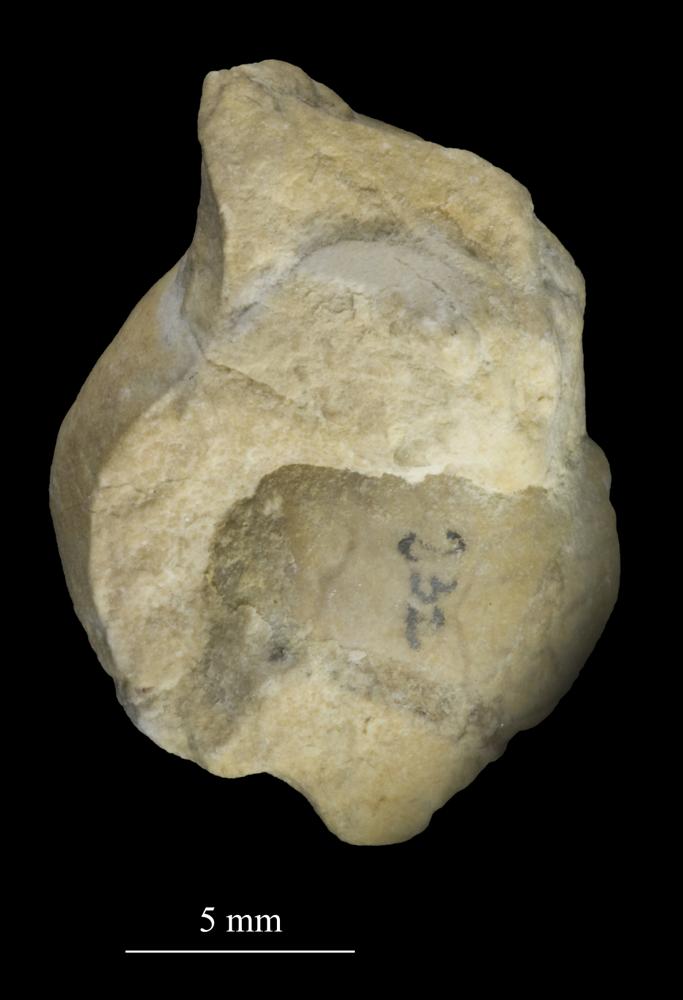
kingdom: Animalia
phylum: Mollusca
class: Gastropoda
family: Bucaniidae
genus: Tetranota
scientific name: Tetranota Bellerophon conspicuus
